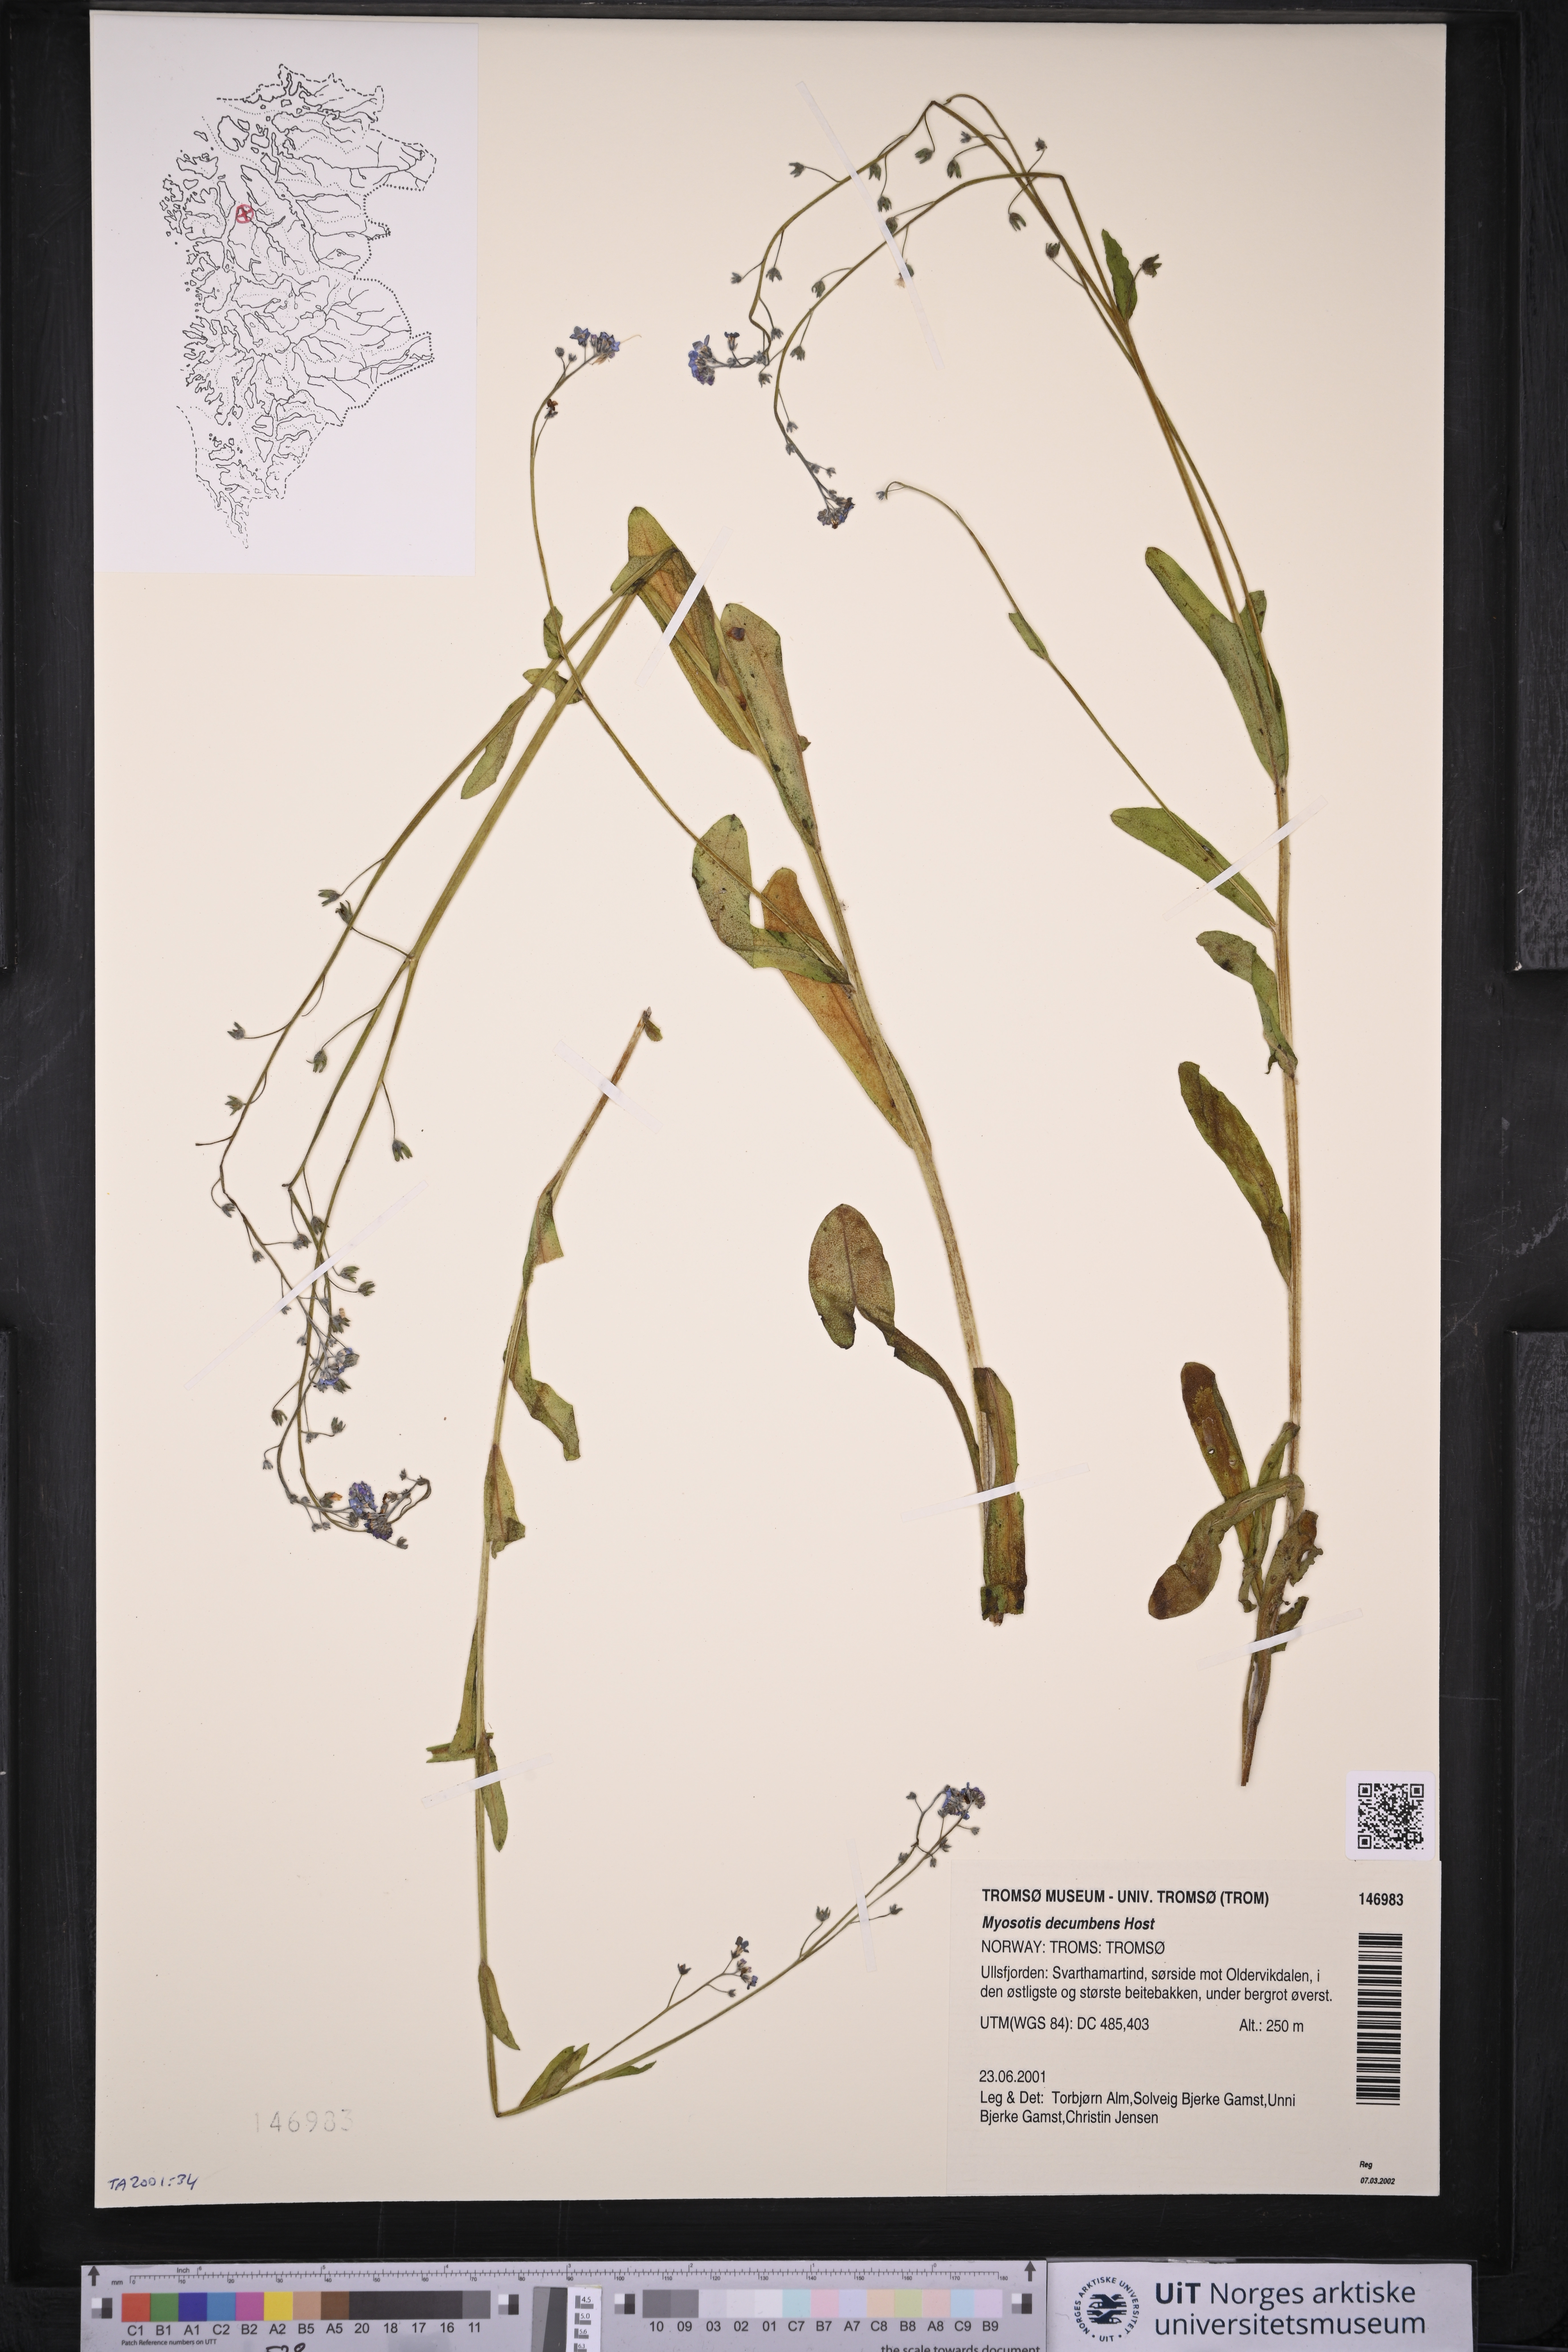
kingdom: Plantae
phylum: Tracheophyta
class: Magnoliopsida
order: Boraginales
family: Boraginaceae
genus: Myosotis
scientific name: Myosotis decumbens
